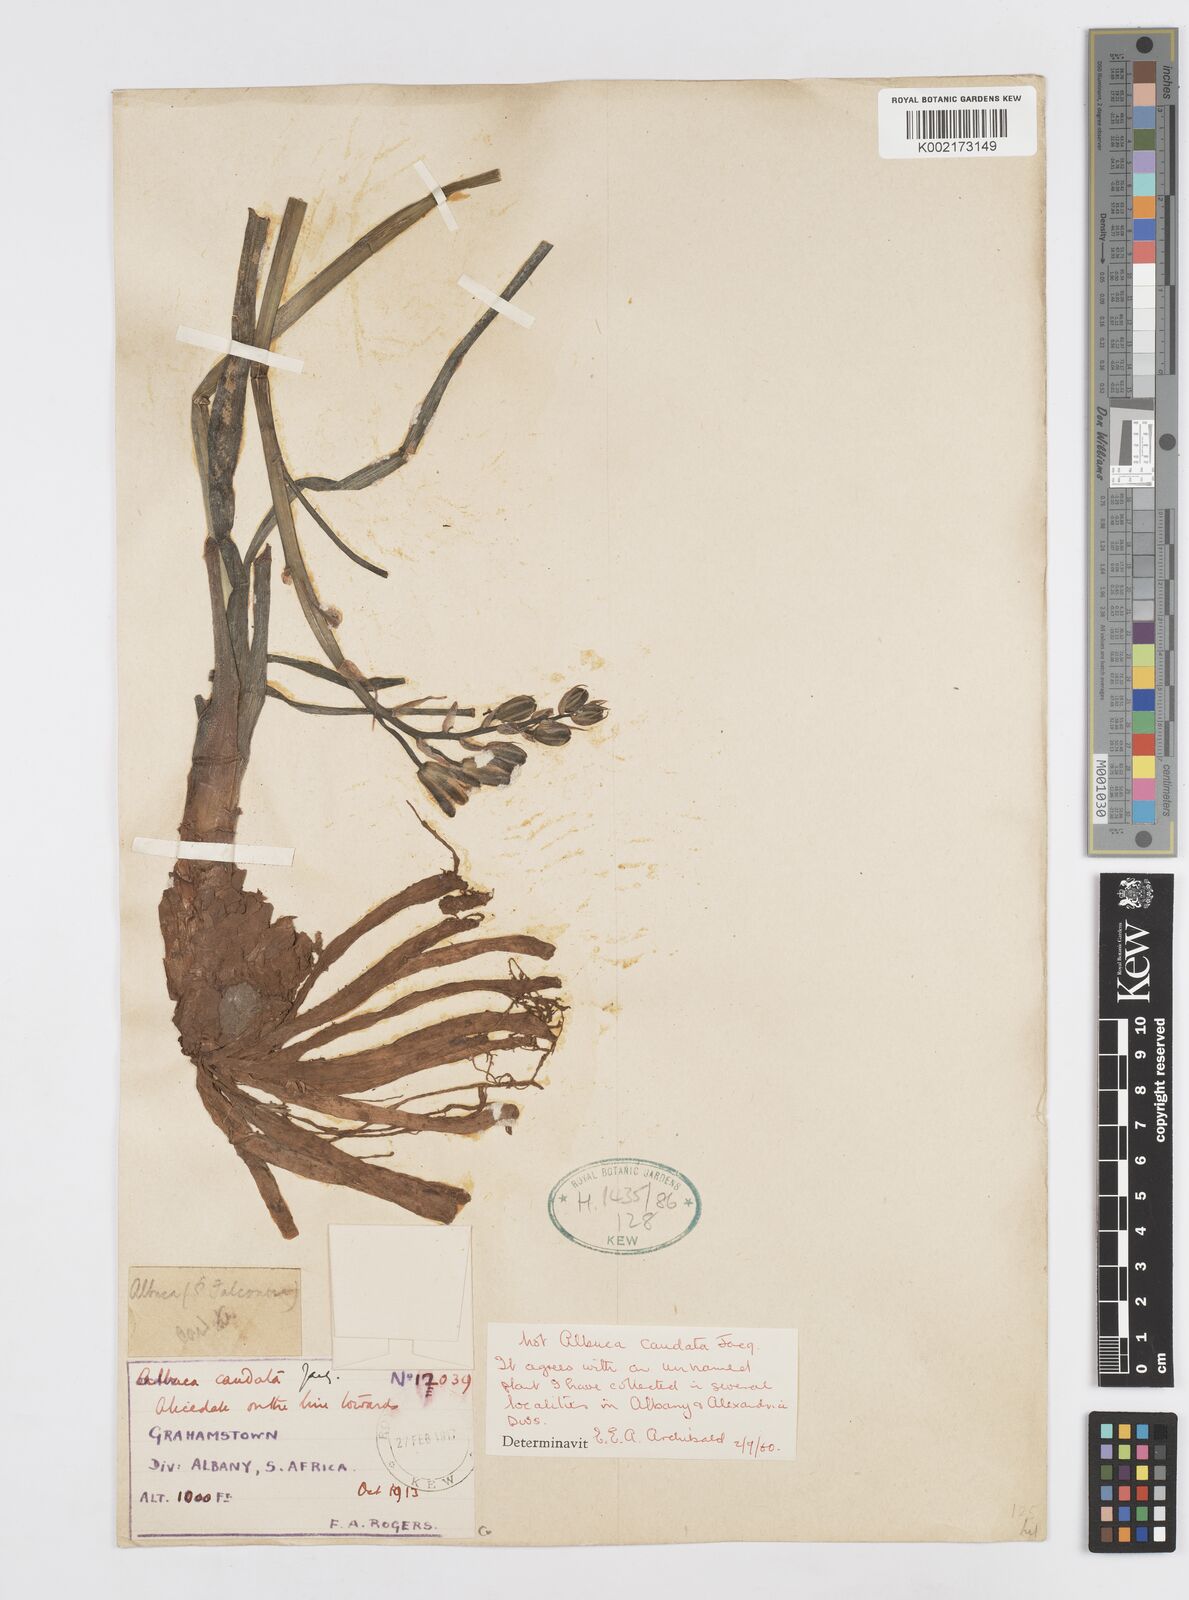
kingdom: Plantae
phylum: Tracheophyta
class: Liliopsida
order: Asparagales
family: Asparagaceae
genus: Albuca
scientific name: Albuca
